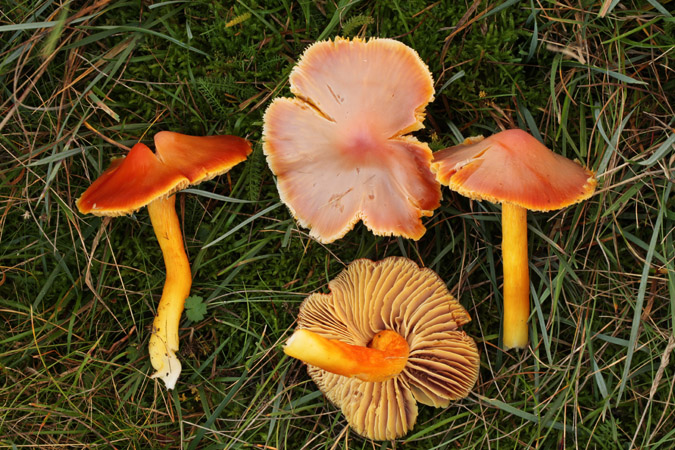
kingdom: Fungi
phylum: Basidiomycota
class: Agaricomycetes
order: Agaricales
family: Hygrophoraceae
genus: Hygrocybe
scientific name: Hygrocybe punicea
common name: skarlagen-vokshat
